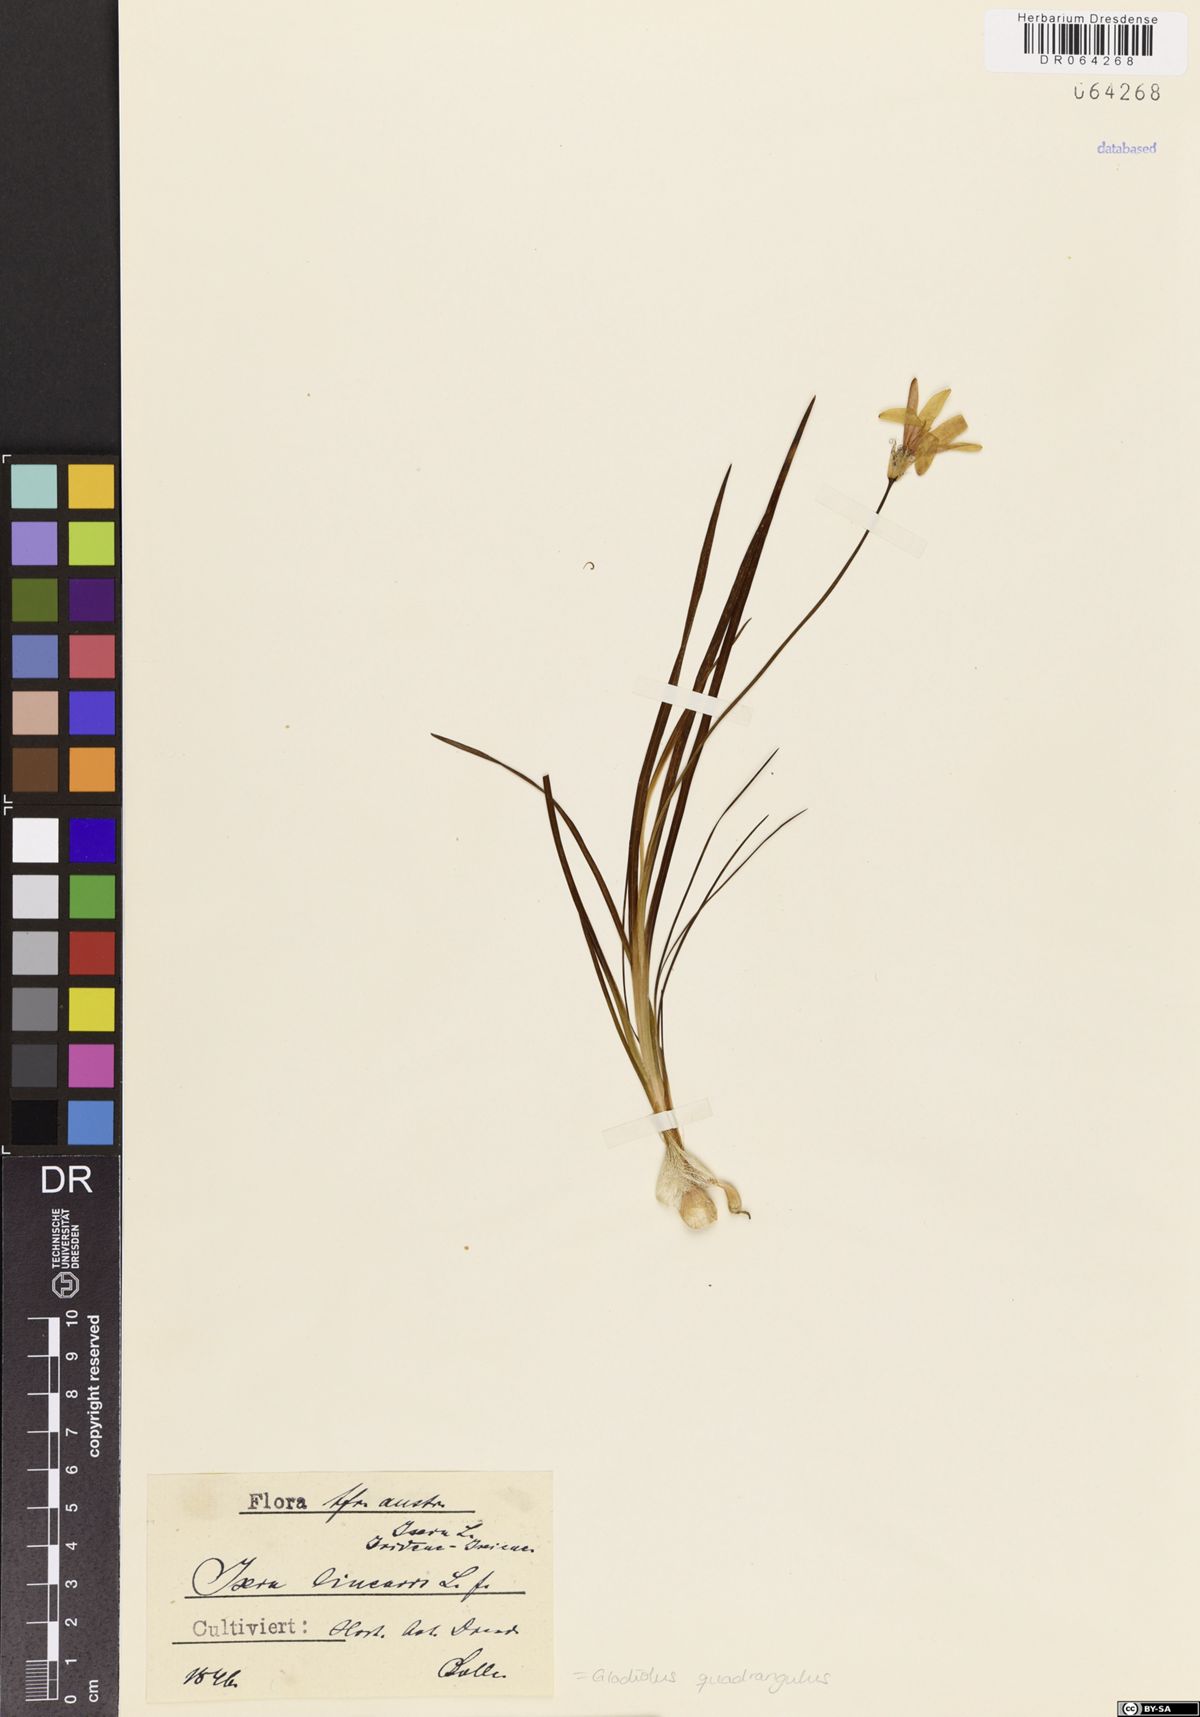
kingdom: Plantae
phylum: Tracheophyta
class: Liliopsida
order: Asparagales
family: Iridaceae
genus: Gladiolus
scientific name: Gladiolus quadrangulus
